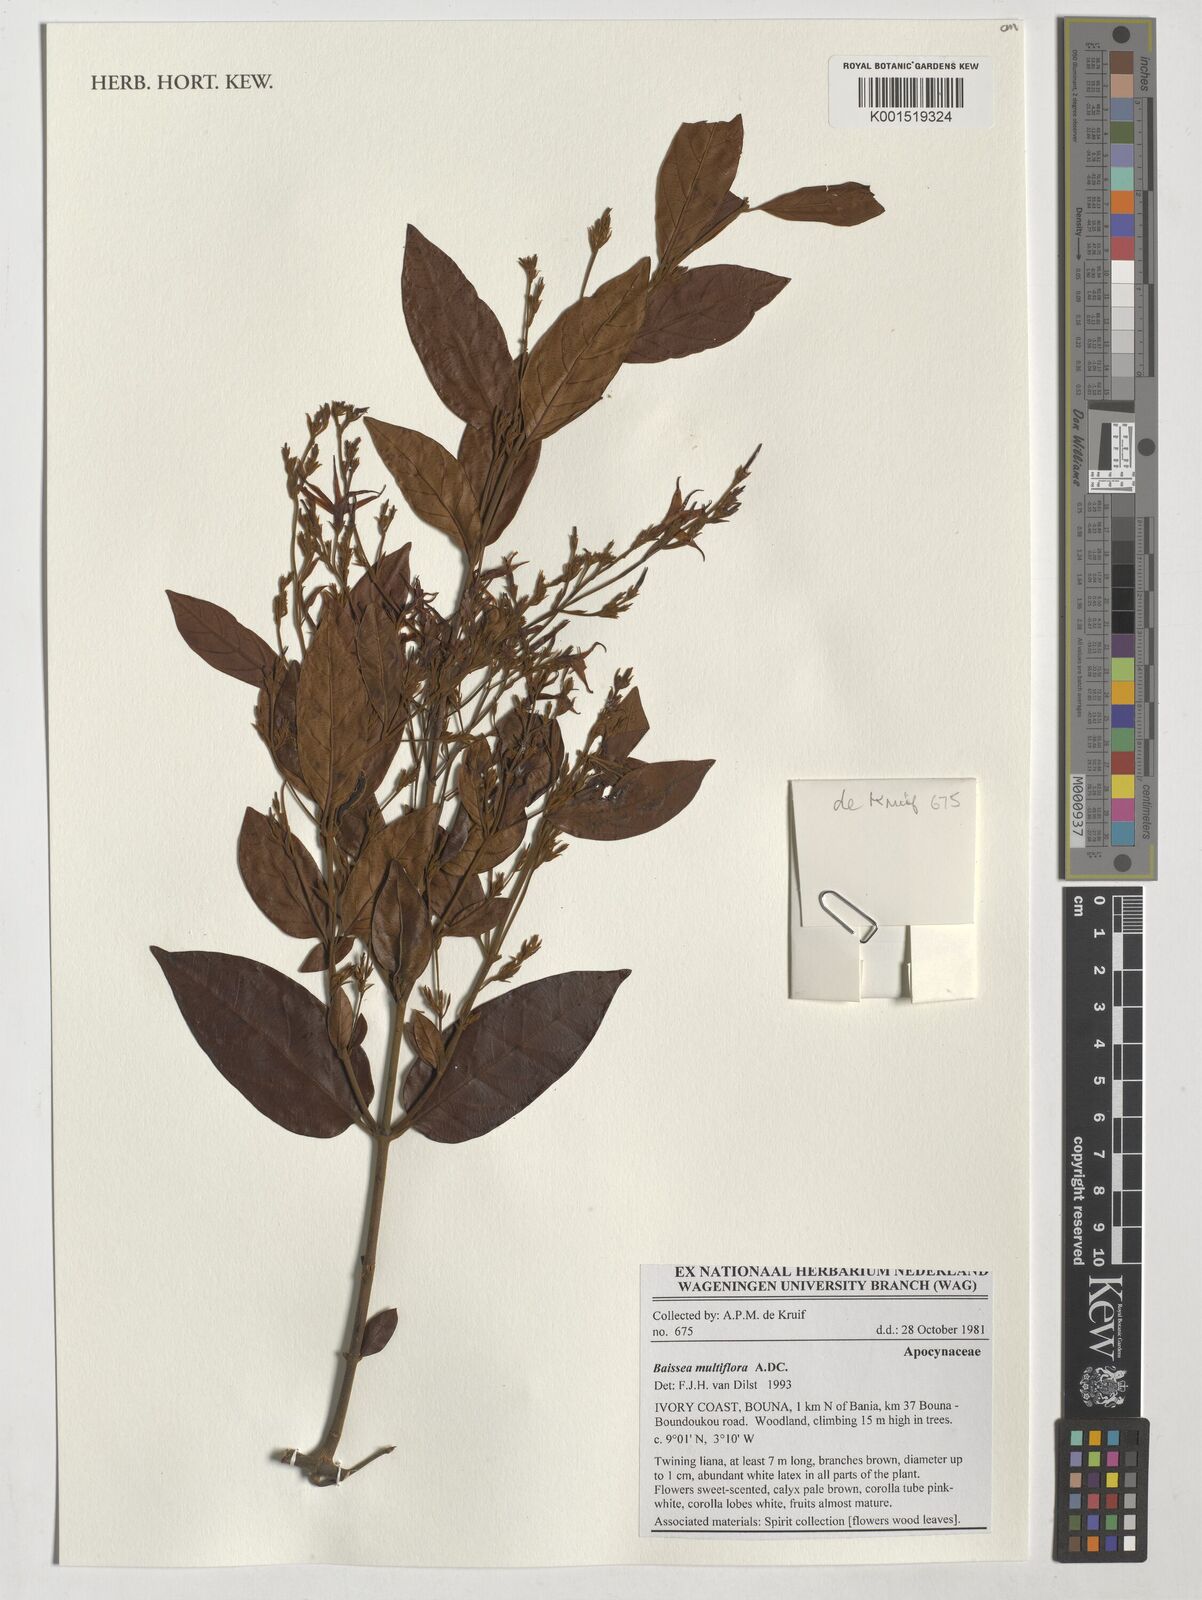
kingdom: Plantae
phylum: Tracheophyta
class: Magnoliopsida
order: Gentianales
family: Apocynaceae
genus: Baissea
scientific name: Baissea multiflora
